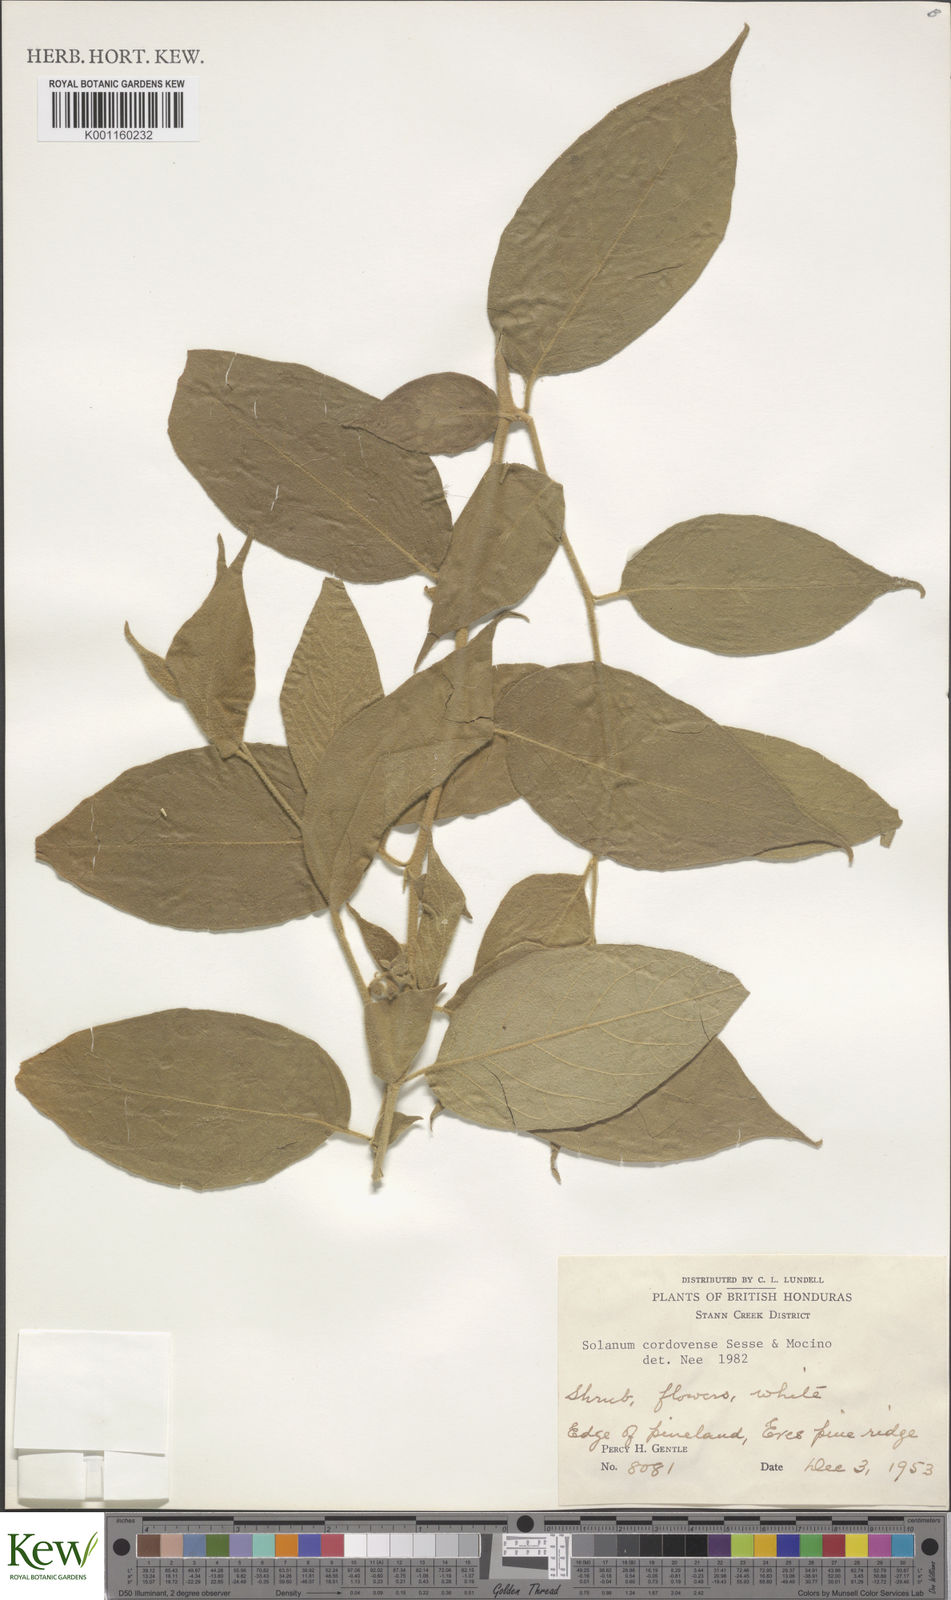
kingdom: Plantae
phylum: Tracheophyta
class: Magnoliopsida
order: Solanales
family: Solanaceae
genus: Solanum
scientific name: Solanum
